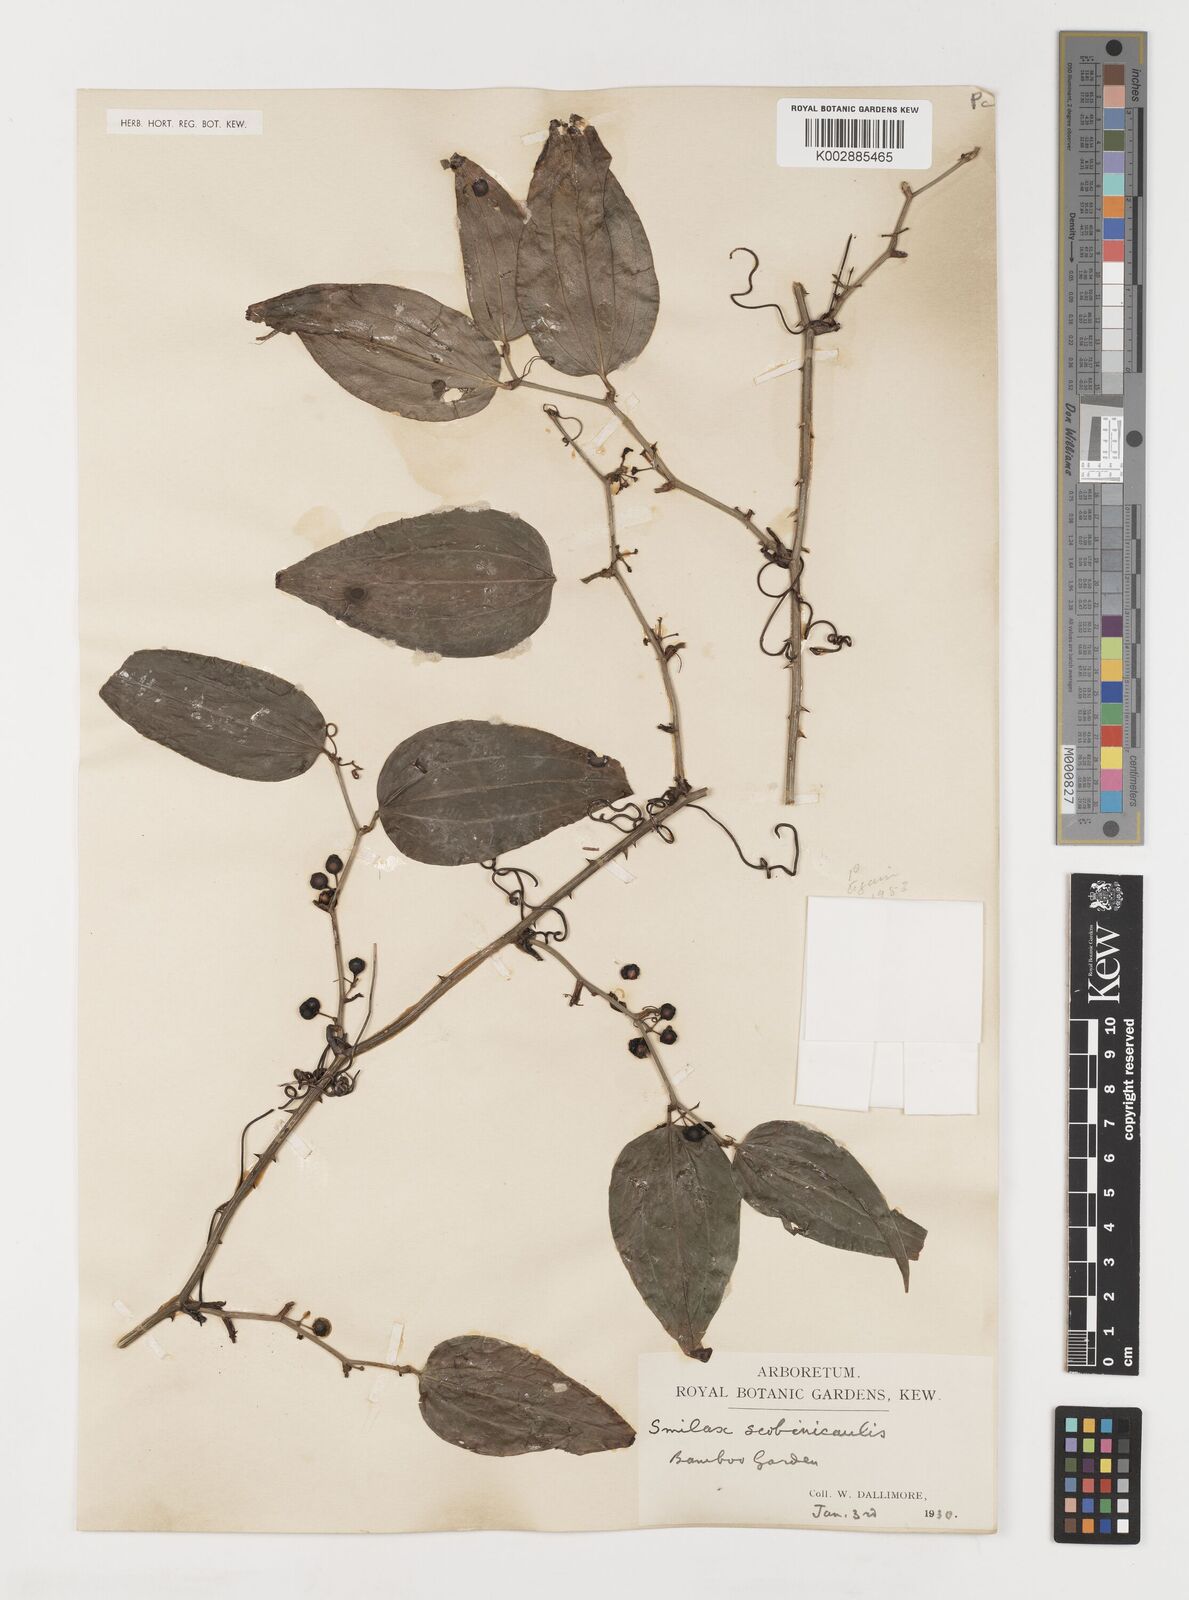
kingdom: Plantae
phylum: Tracheophyta
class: Liliopsida
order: Liliales
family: Smilacaceae
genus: Smilax
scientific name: Smilax scobinicaulis
